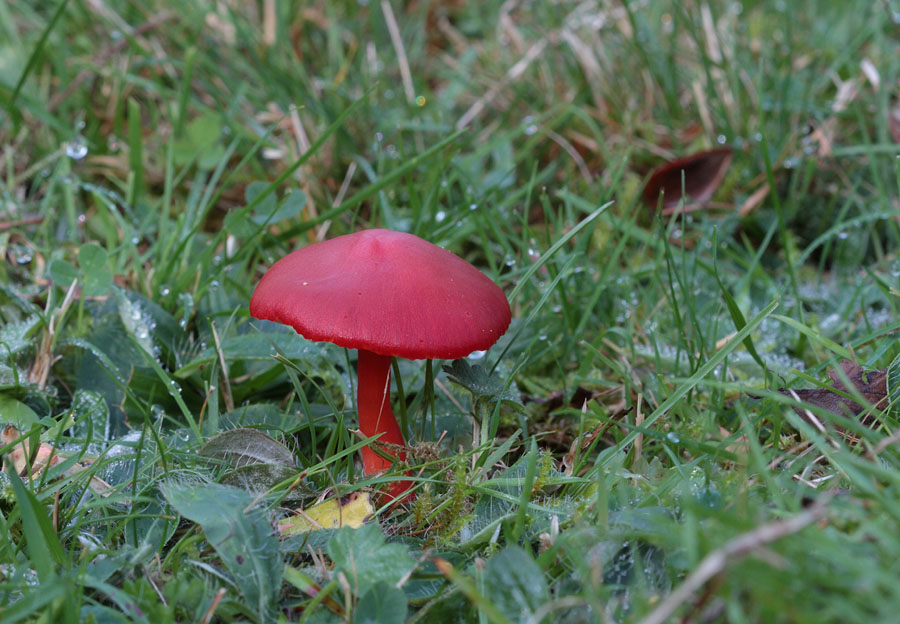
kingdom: Fungi
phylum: Basidiomycota
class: Agaricomycetes
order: Agaricales
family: Hygrophoraceae
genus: Hygrocybe
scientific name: Hygrocybe coccinea
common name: cinnober-vokshat
